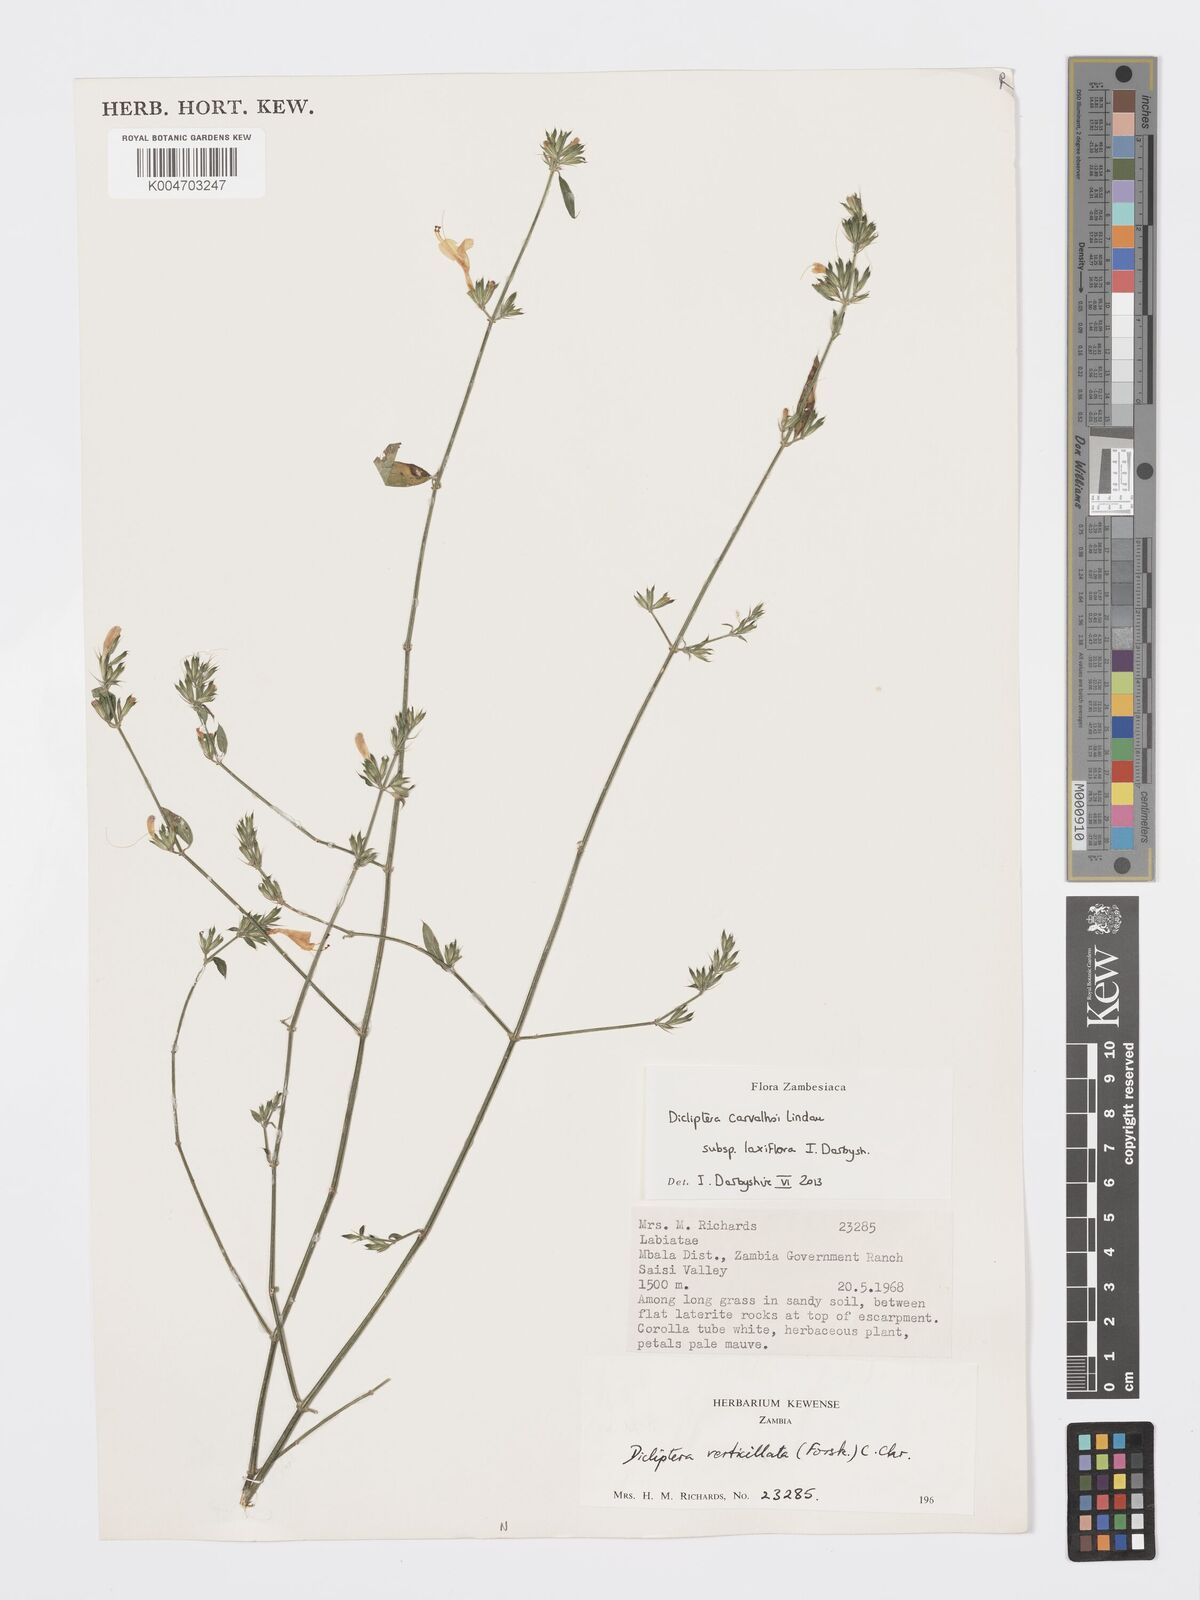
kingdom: Plantae
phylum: Tracheophyta
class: Magnoliopsida
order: Lamiales
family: Acanthaceae
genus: Dicliptera
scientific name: Dicliptera carvalhoi
